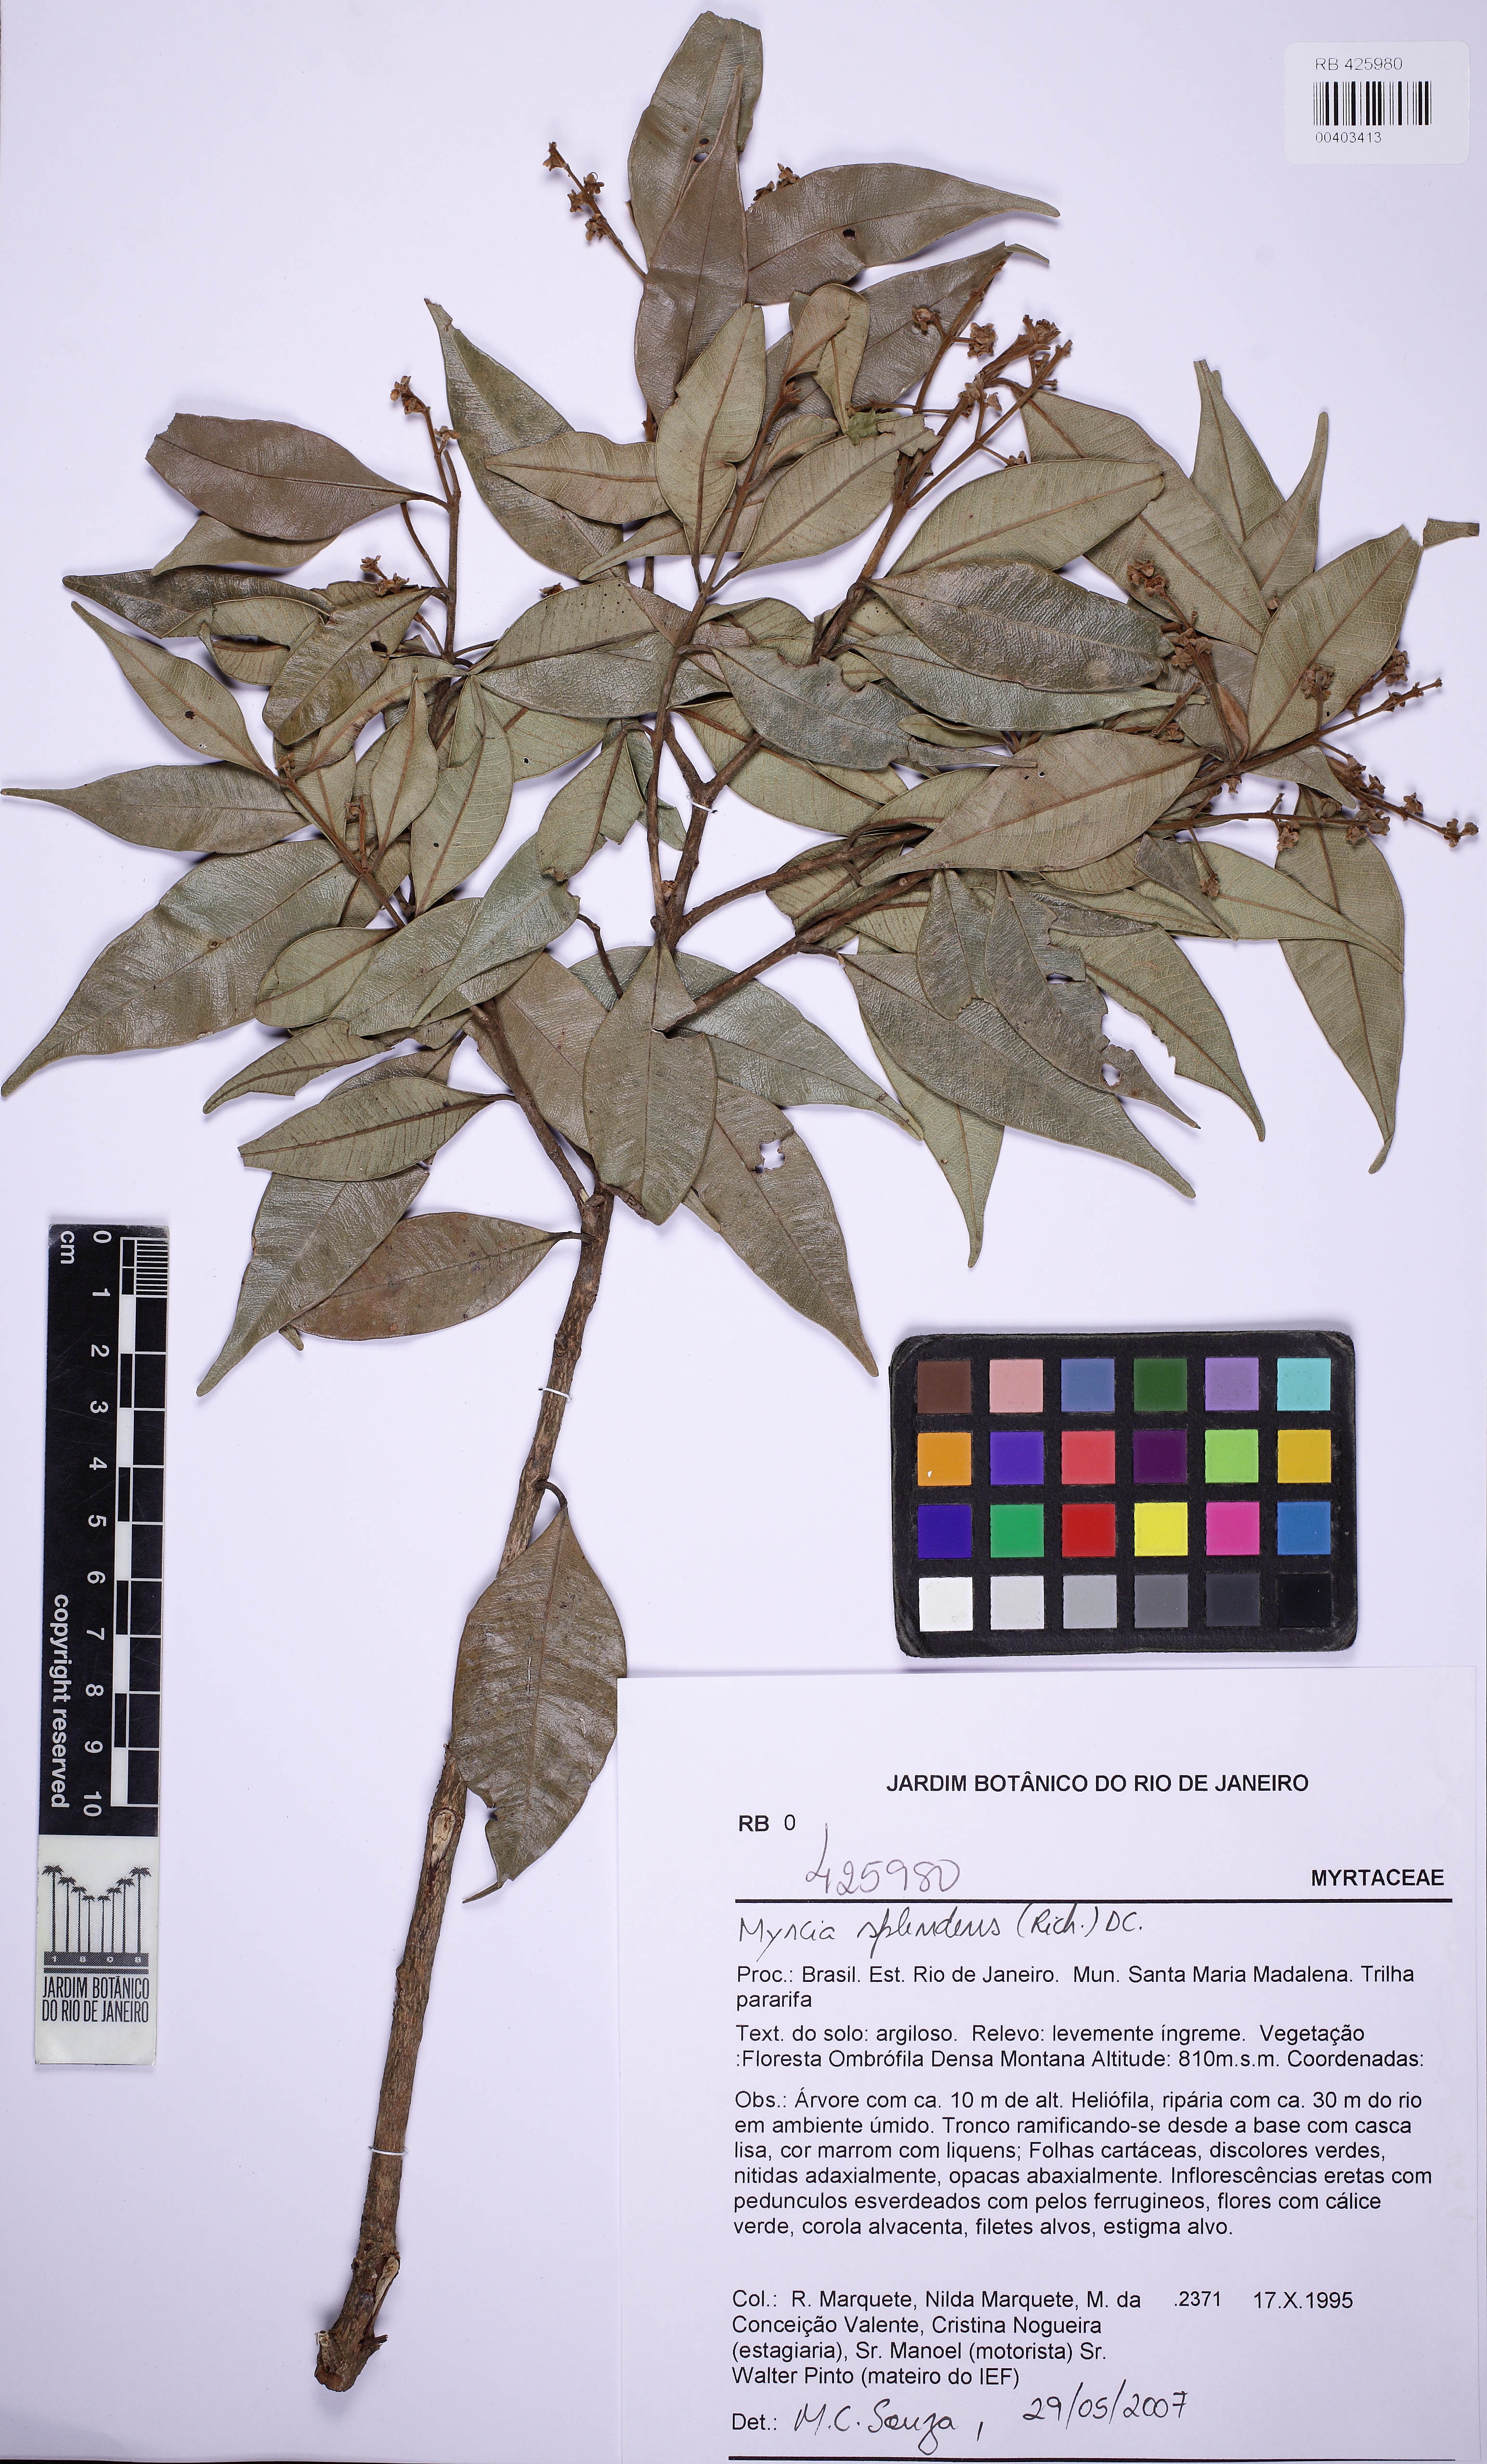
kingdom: Plantae
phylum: Tracheophyta
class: Magnoliopsida
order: Myrtales
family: Myrtaceae
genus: Myrcia
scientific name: Myrcia splendens
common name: Surinam cherry
